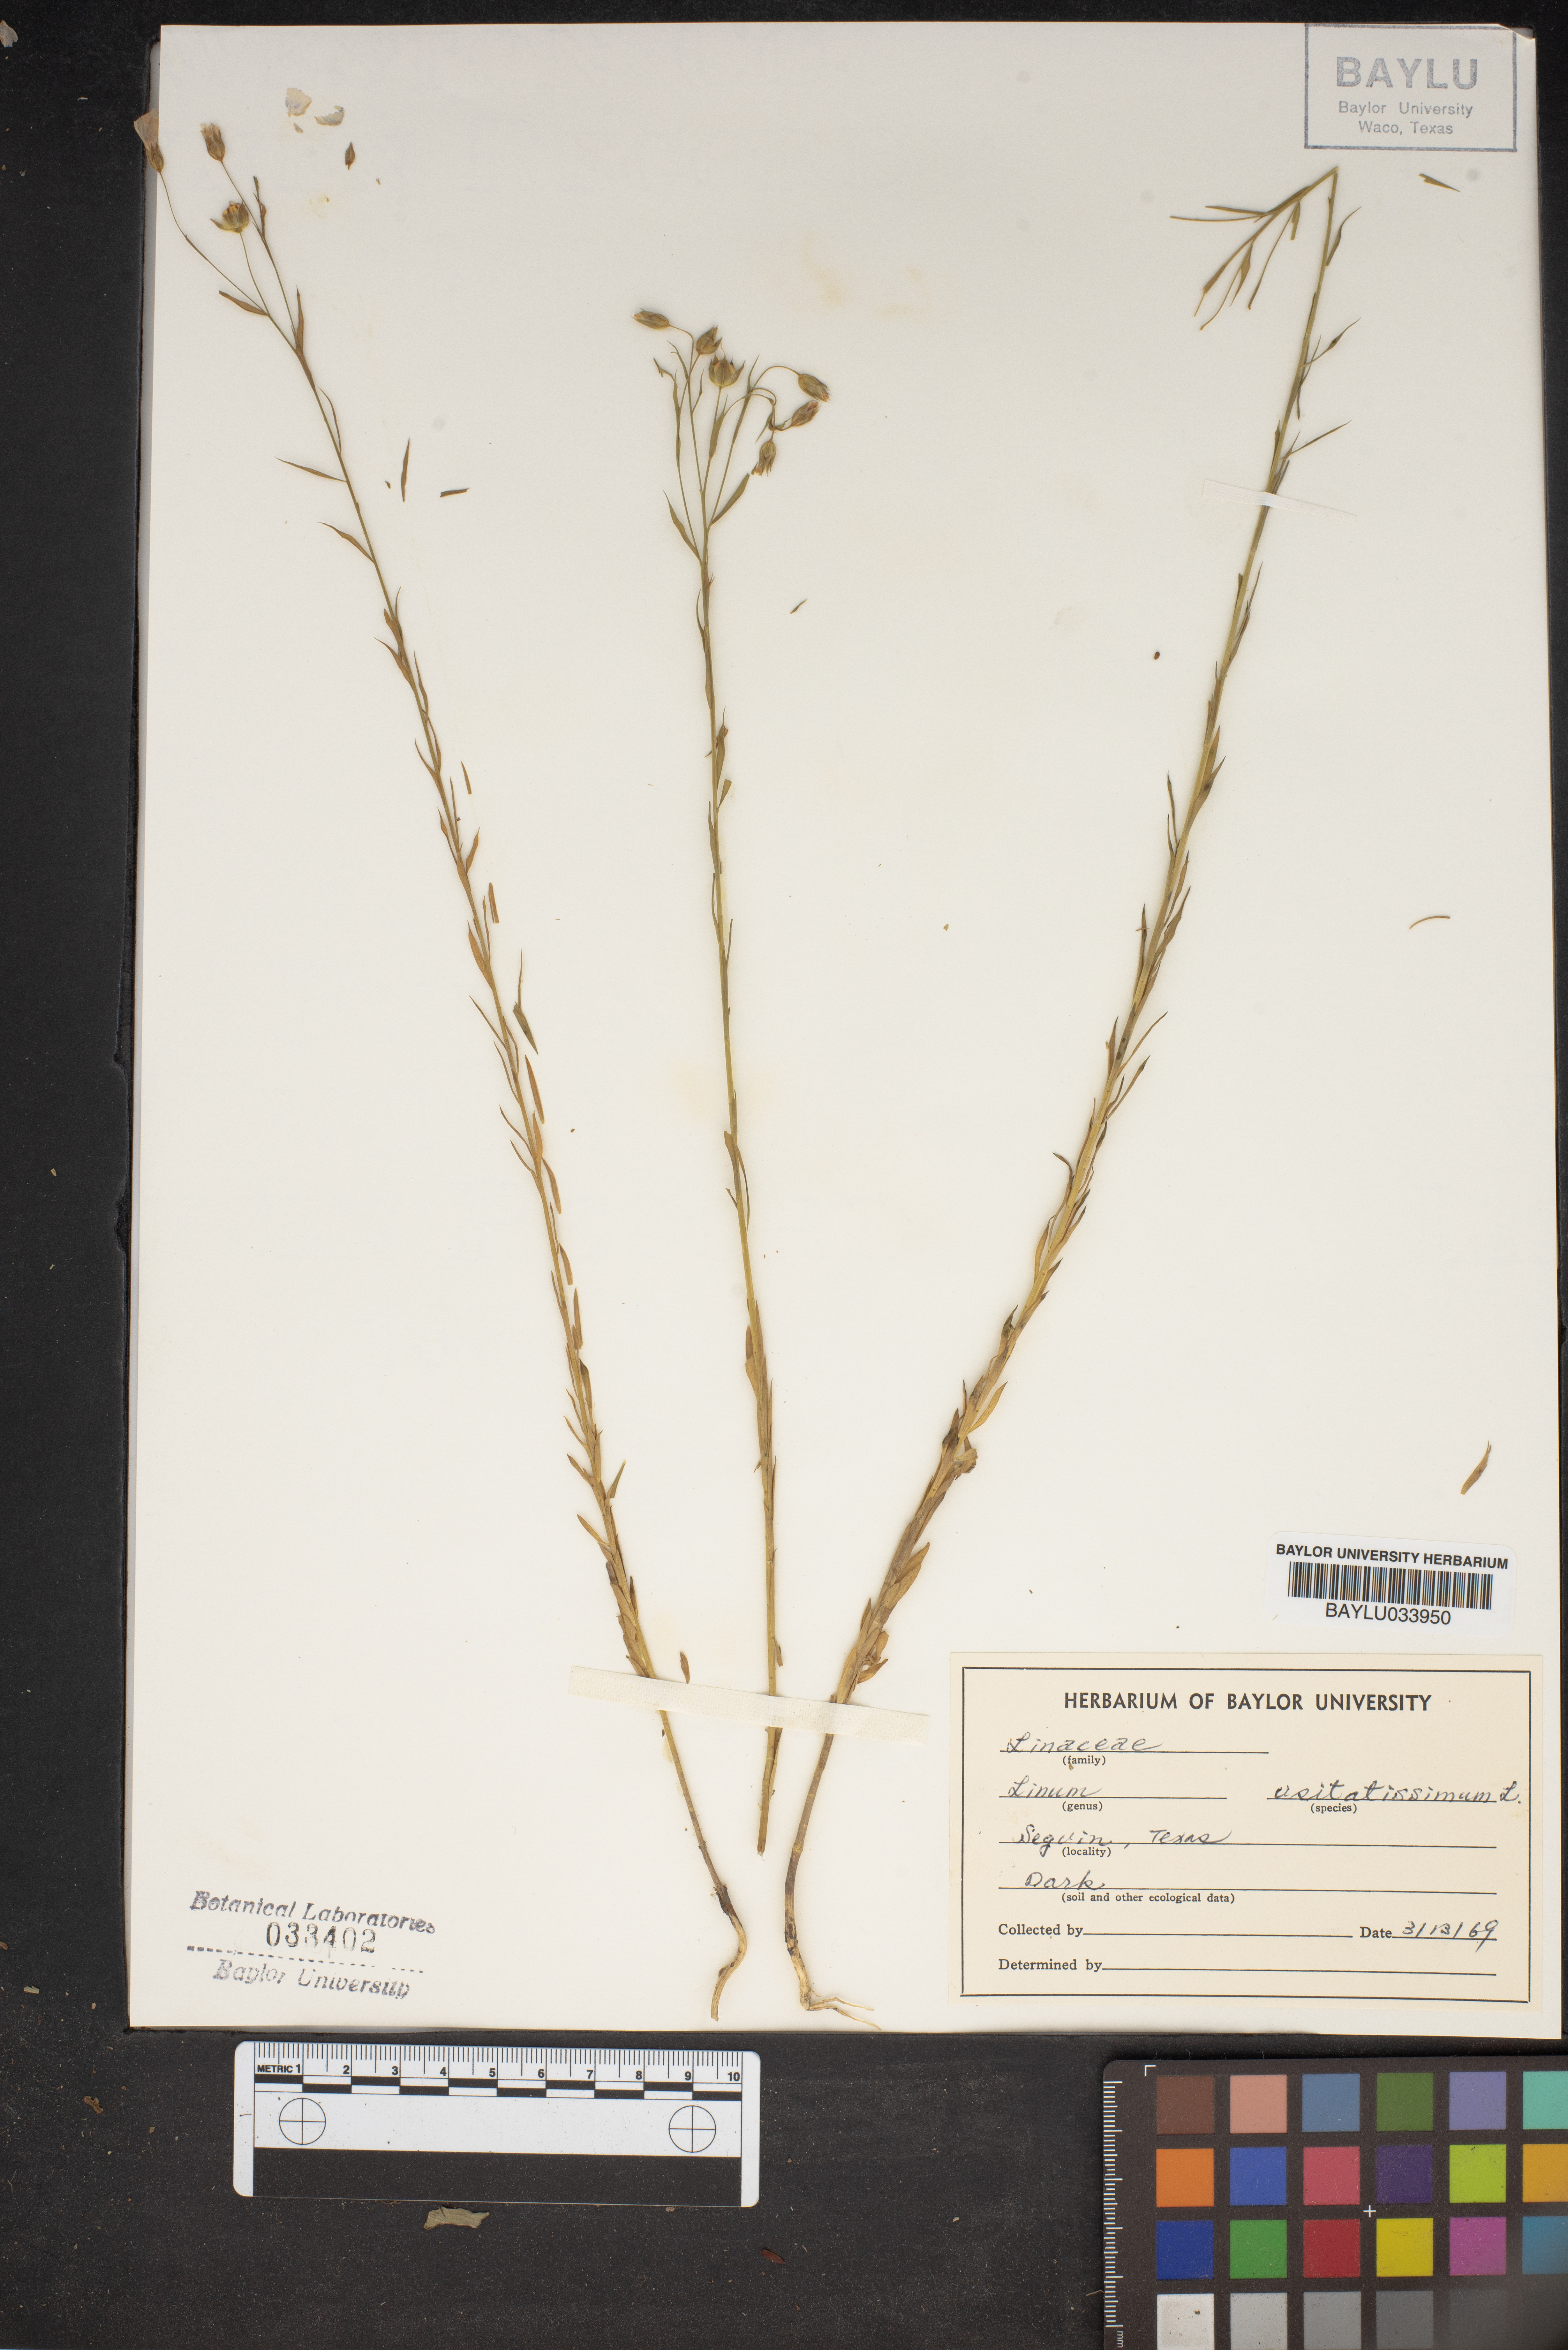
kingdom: Plantae
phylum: Tracheophyta
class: Magnoliopsida
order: Malpighiales
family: Linaceae
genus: Linum
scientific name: Linum usitatissimum
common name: Flax
